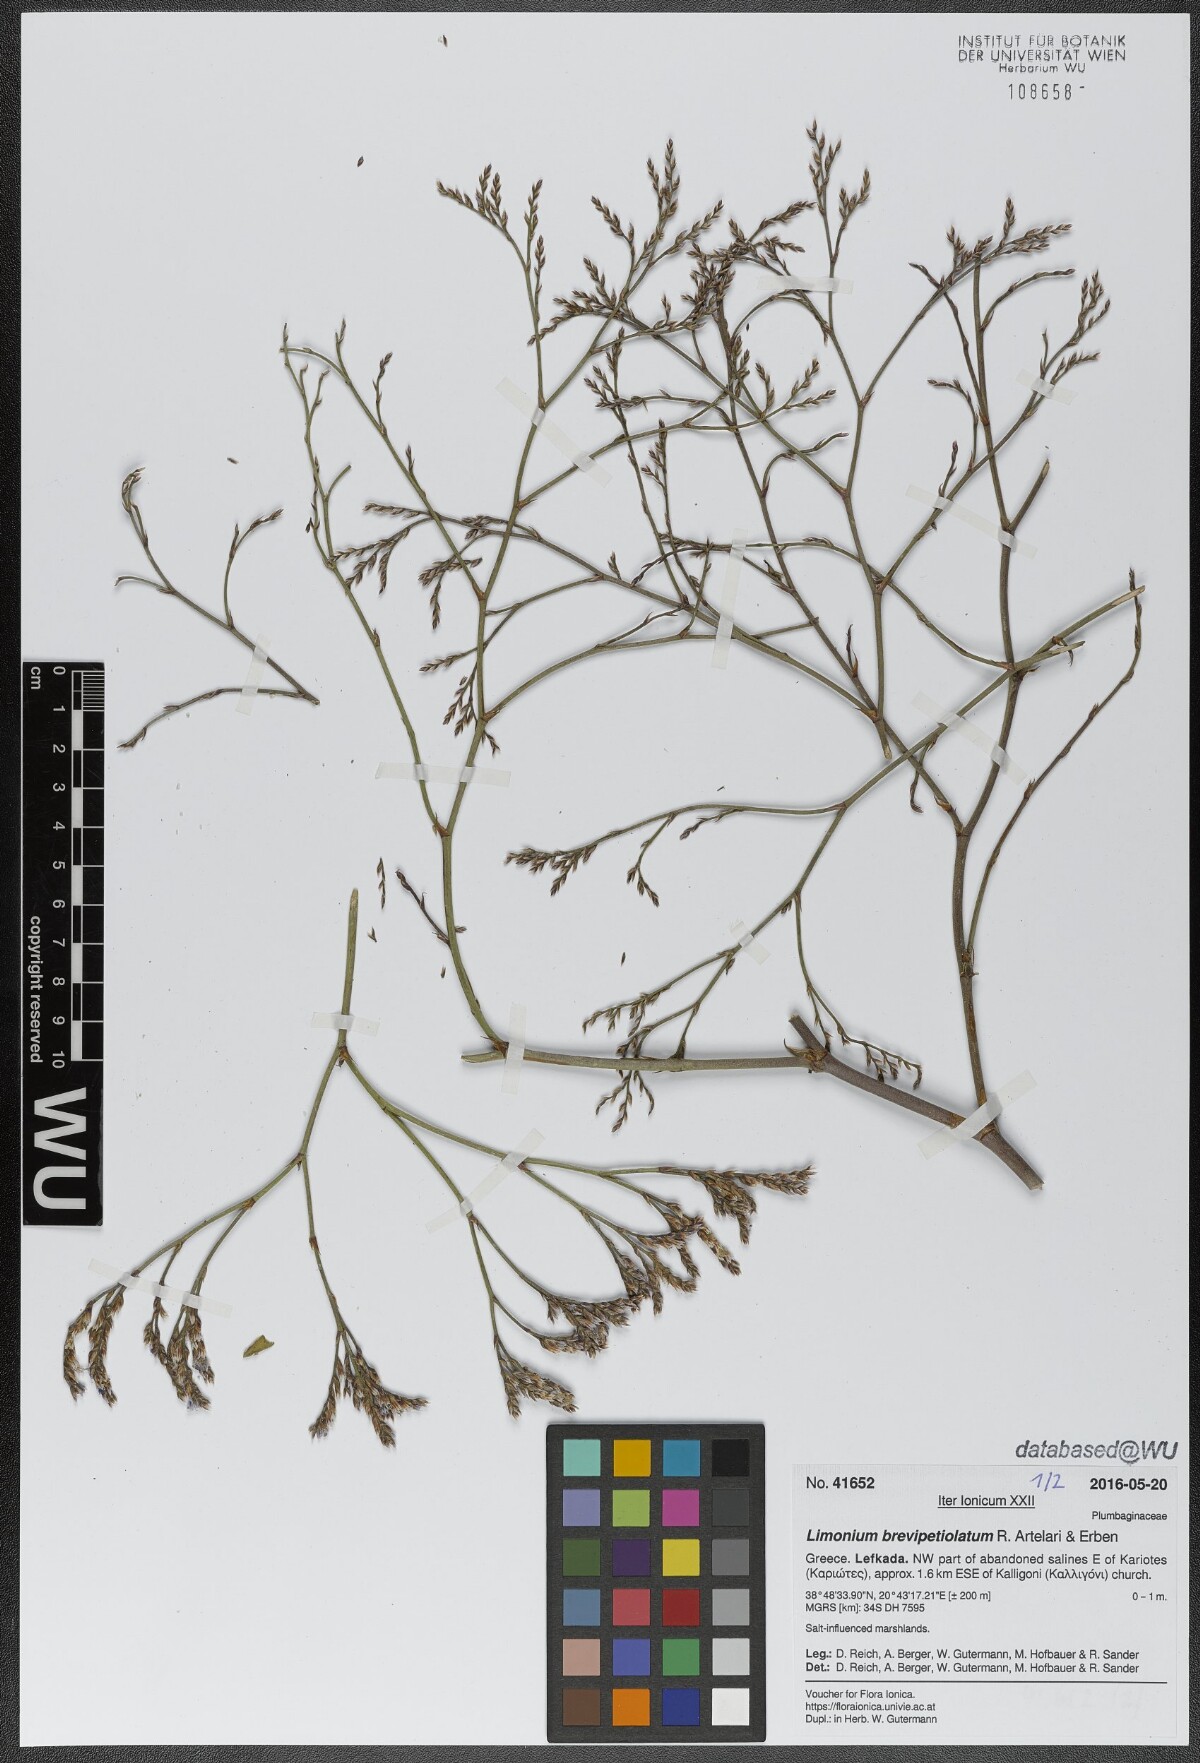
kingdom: Plantae
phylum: Tracheophyta
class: Magnoliopsida
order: Caryophyllales
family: Plumbaginaceae
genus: Limonium
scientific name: Limonium brevipetiolatum
